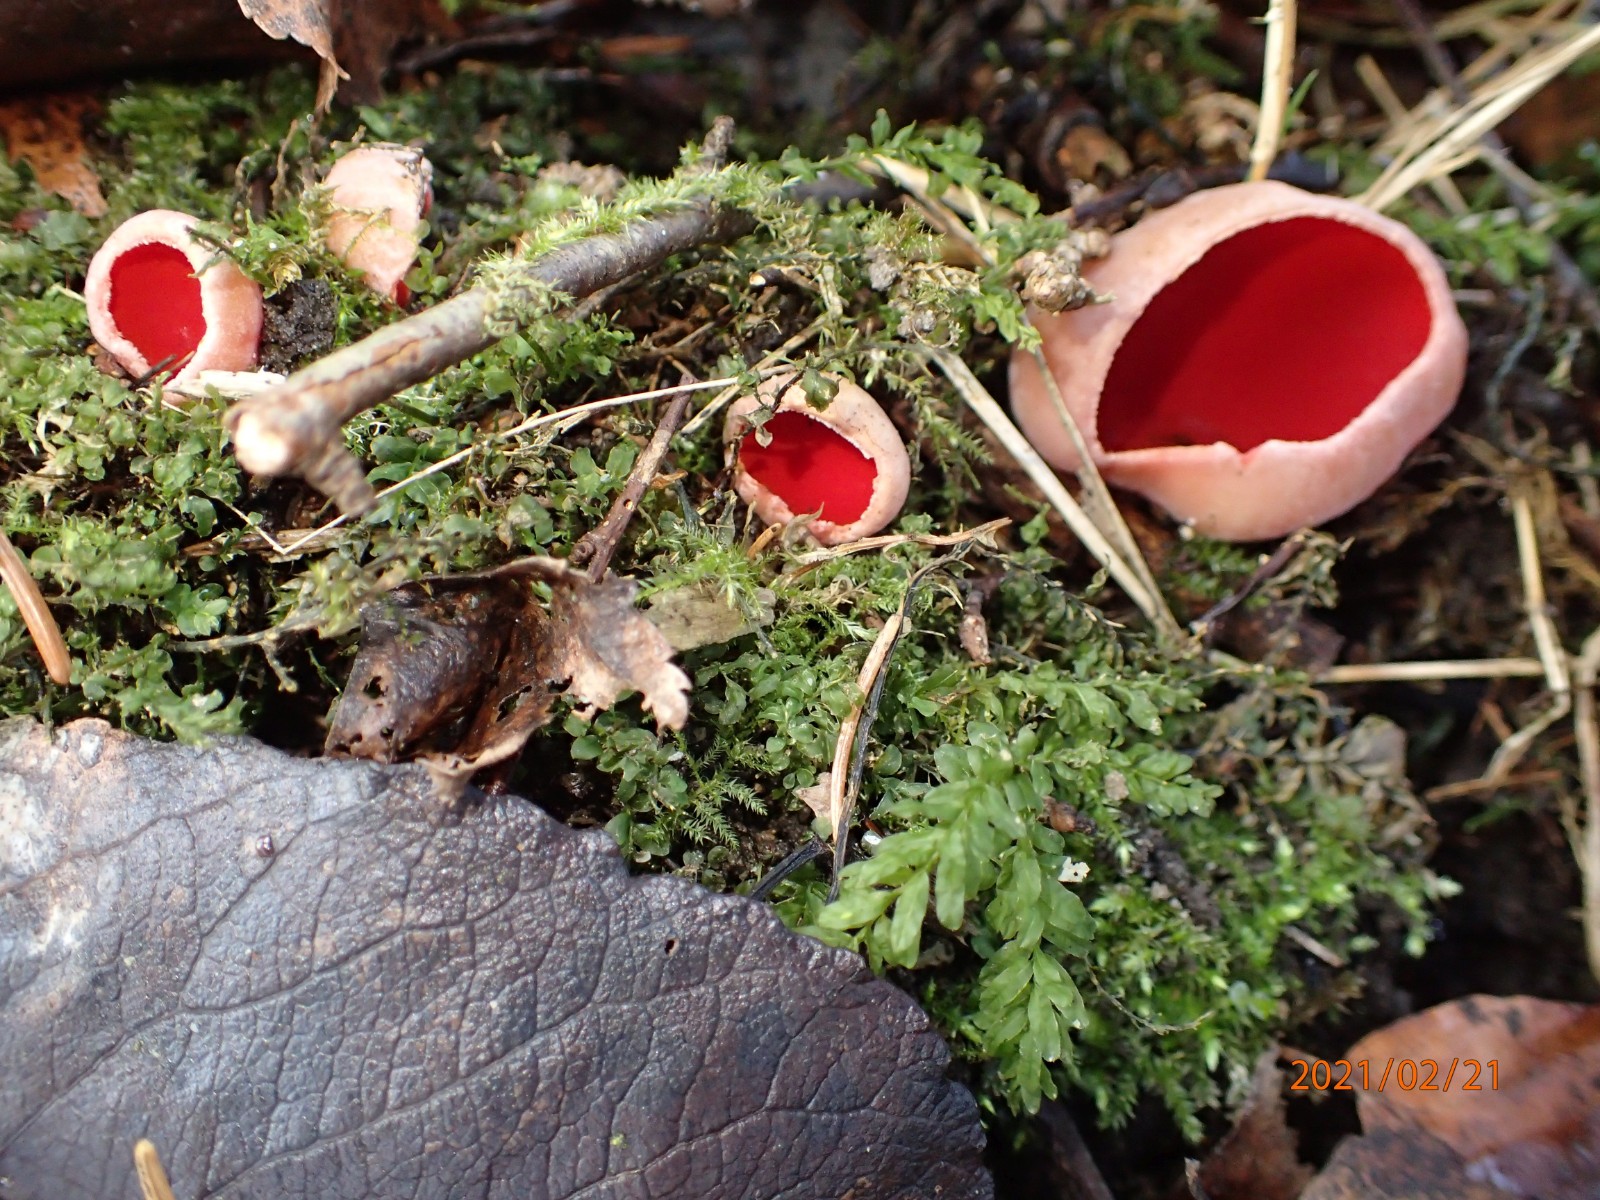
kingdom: Fungi
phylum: Ascomycota
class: Pezizomycetes
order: Pezizales
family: Sarcoscyphaceae
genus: Sarcoscypha
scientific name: Sarcoscypha austriaca
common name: krølhåret pragtbæger
